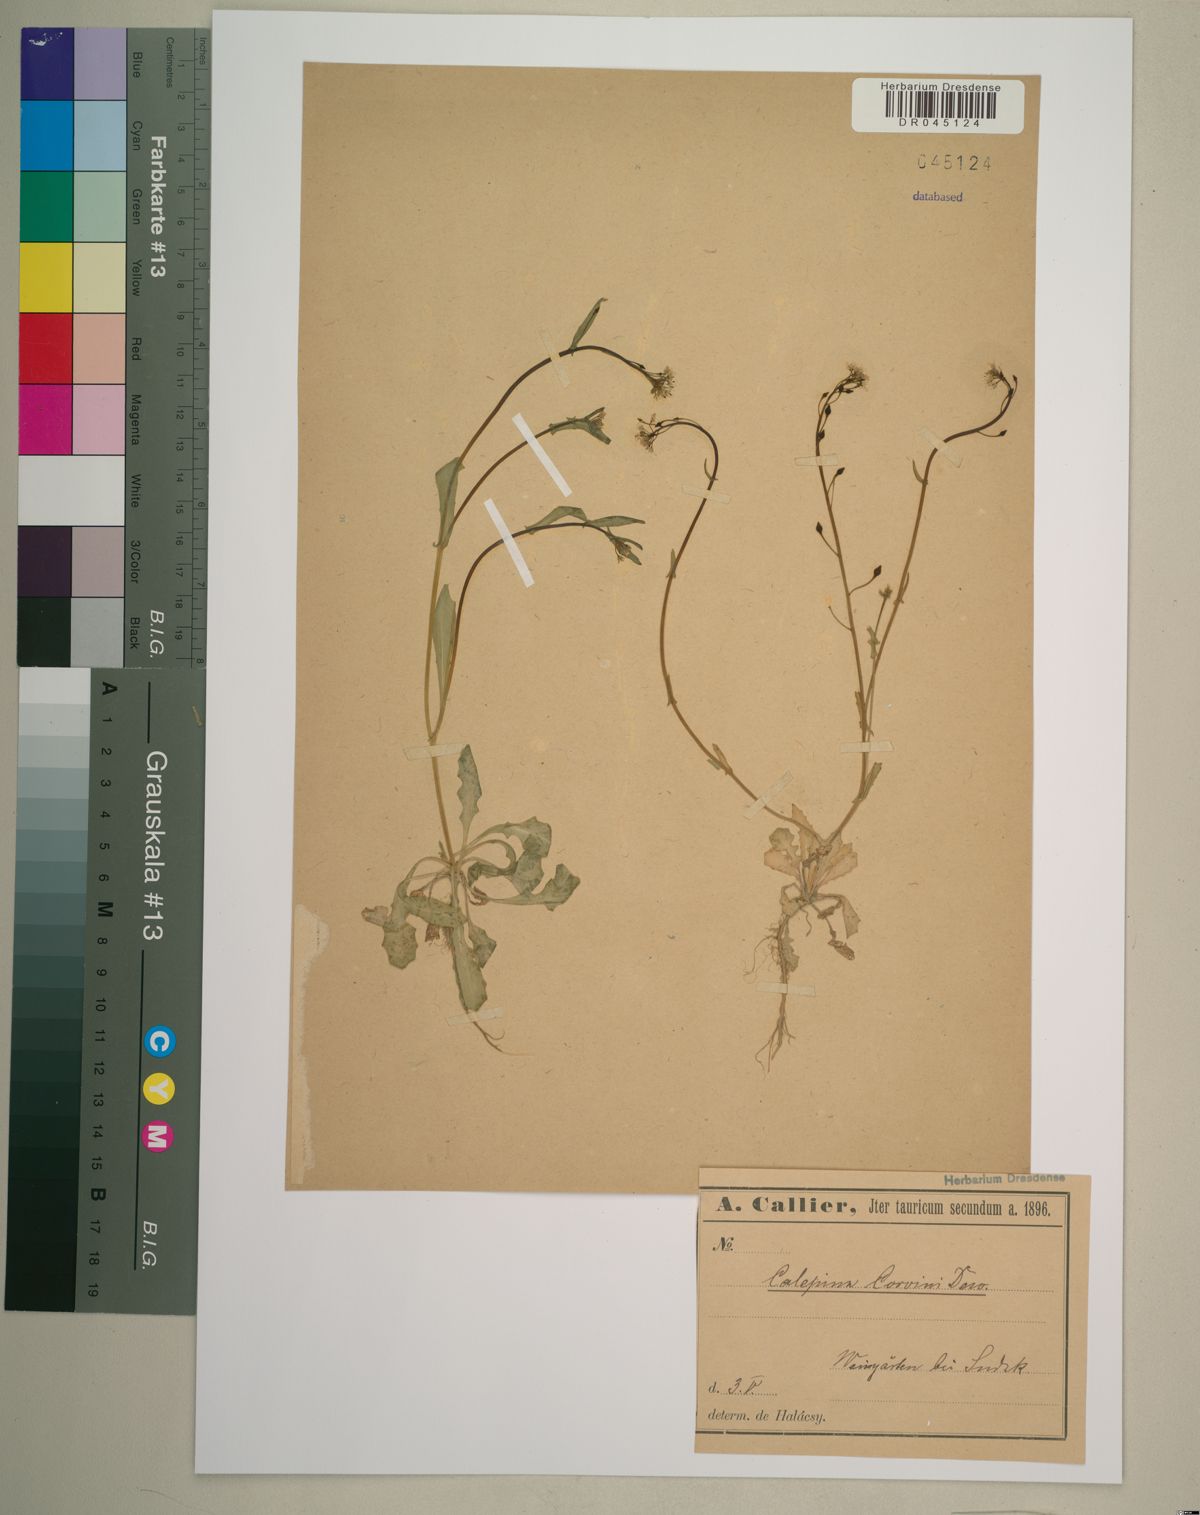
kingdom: Plantae
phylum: Tracheophyta
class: Magnoliopsida
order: Brassicales
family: Brassicaceae
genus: Calepina
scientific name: Calepina irregularis
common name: White ballmustard
